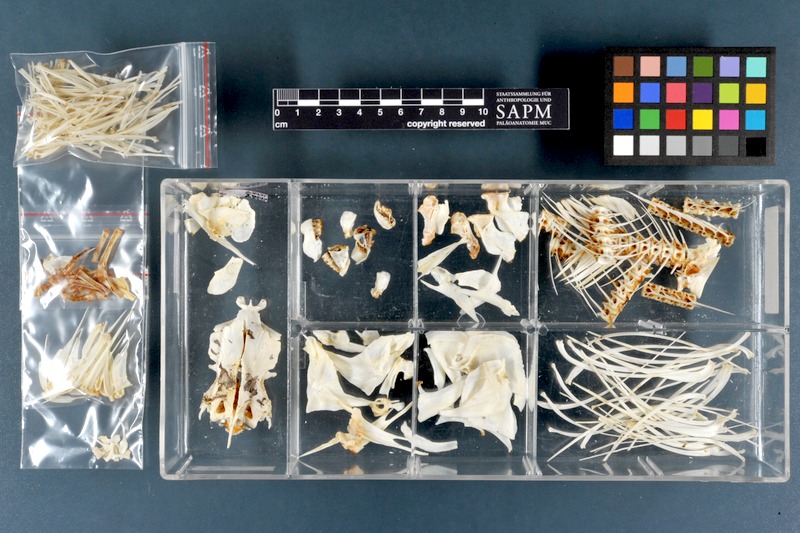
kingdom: Animalia
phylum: Chordata
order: Characiformes
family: Distichodontidae
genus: Distichodus
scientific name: Distichodus rostratus
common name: Grass-eater
